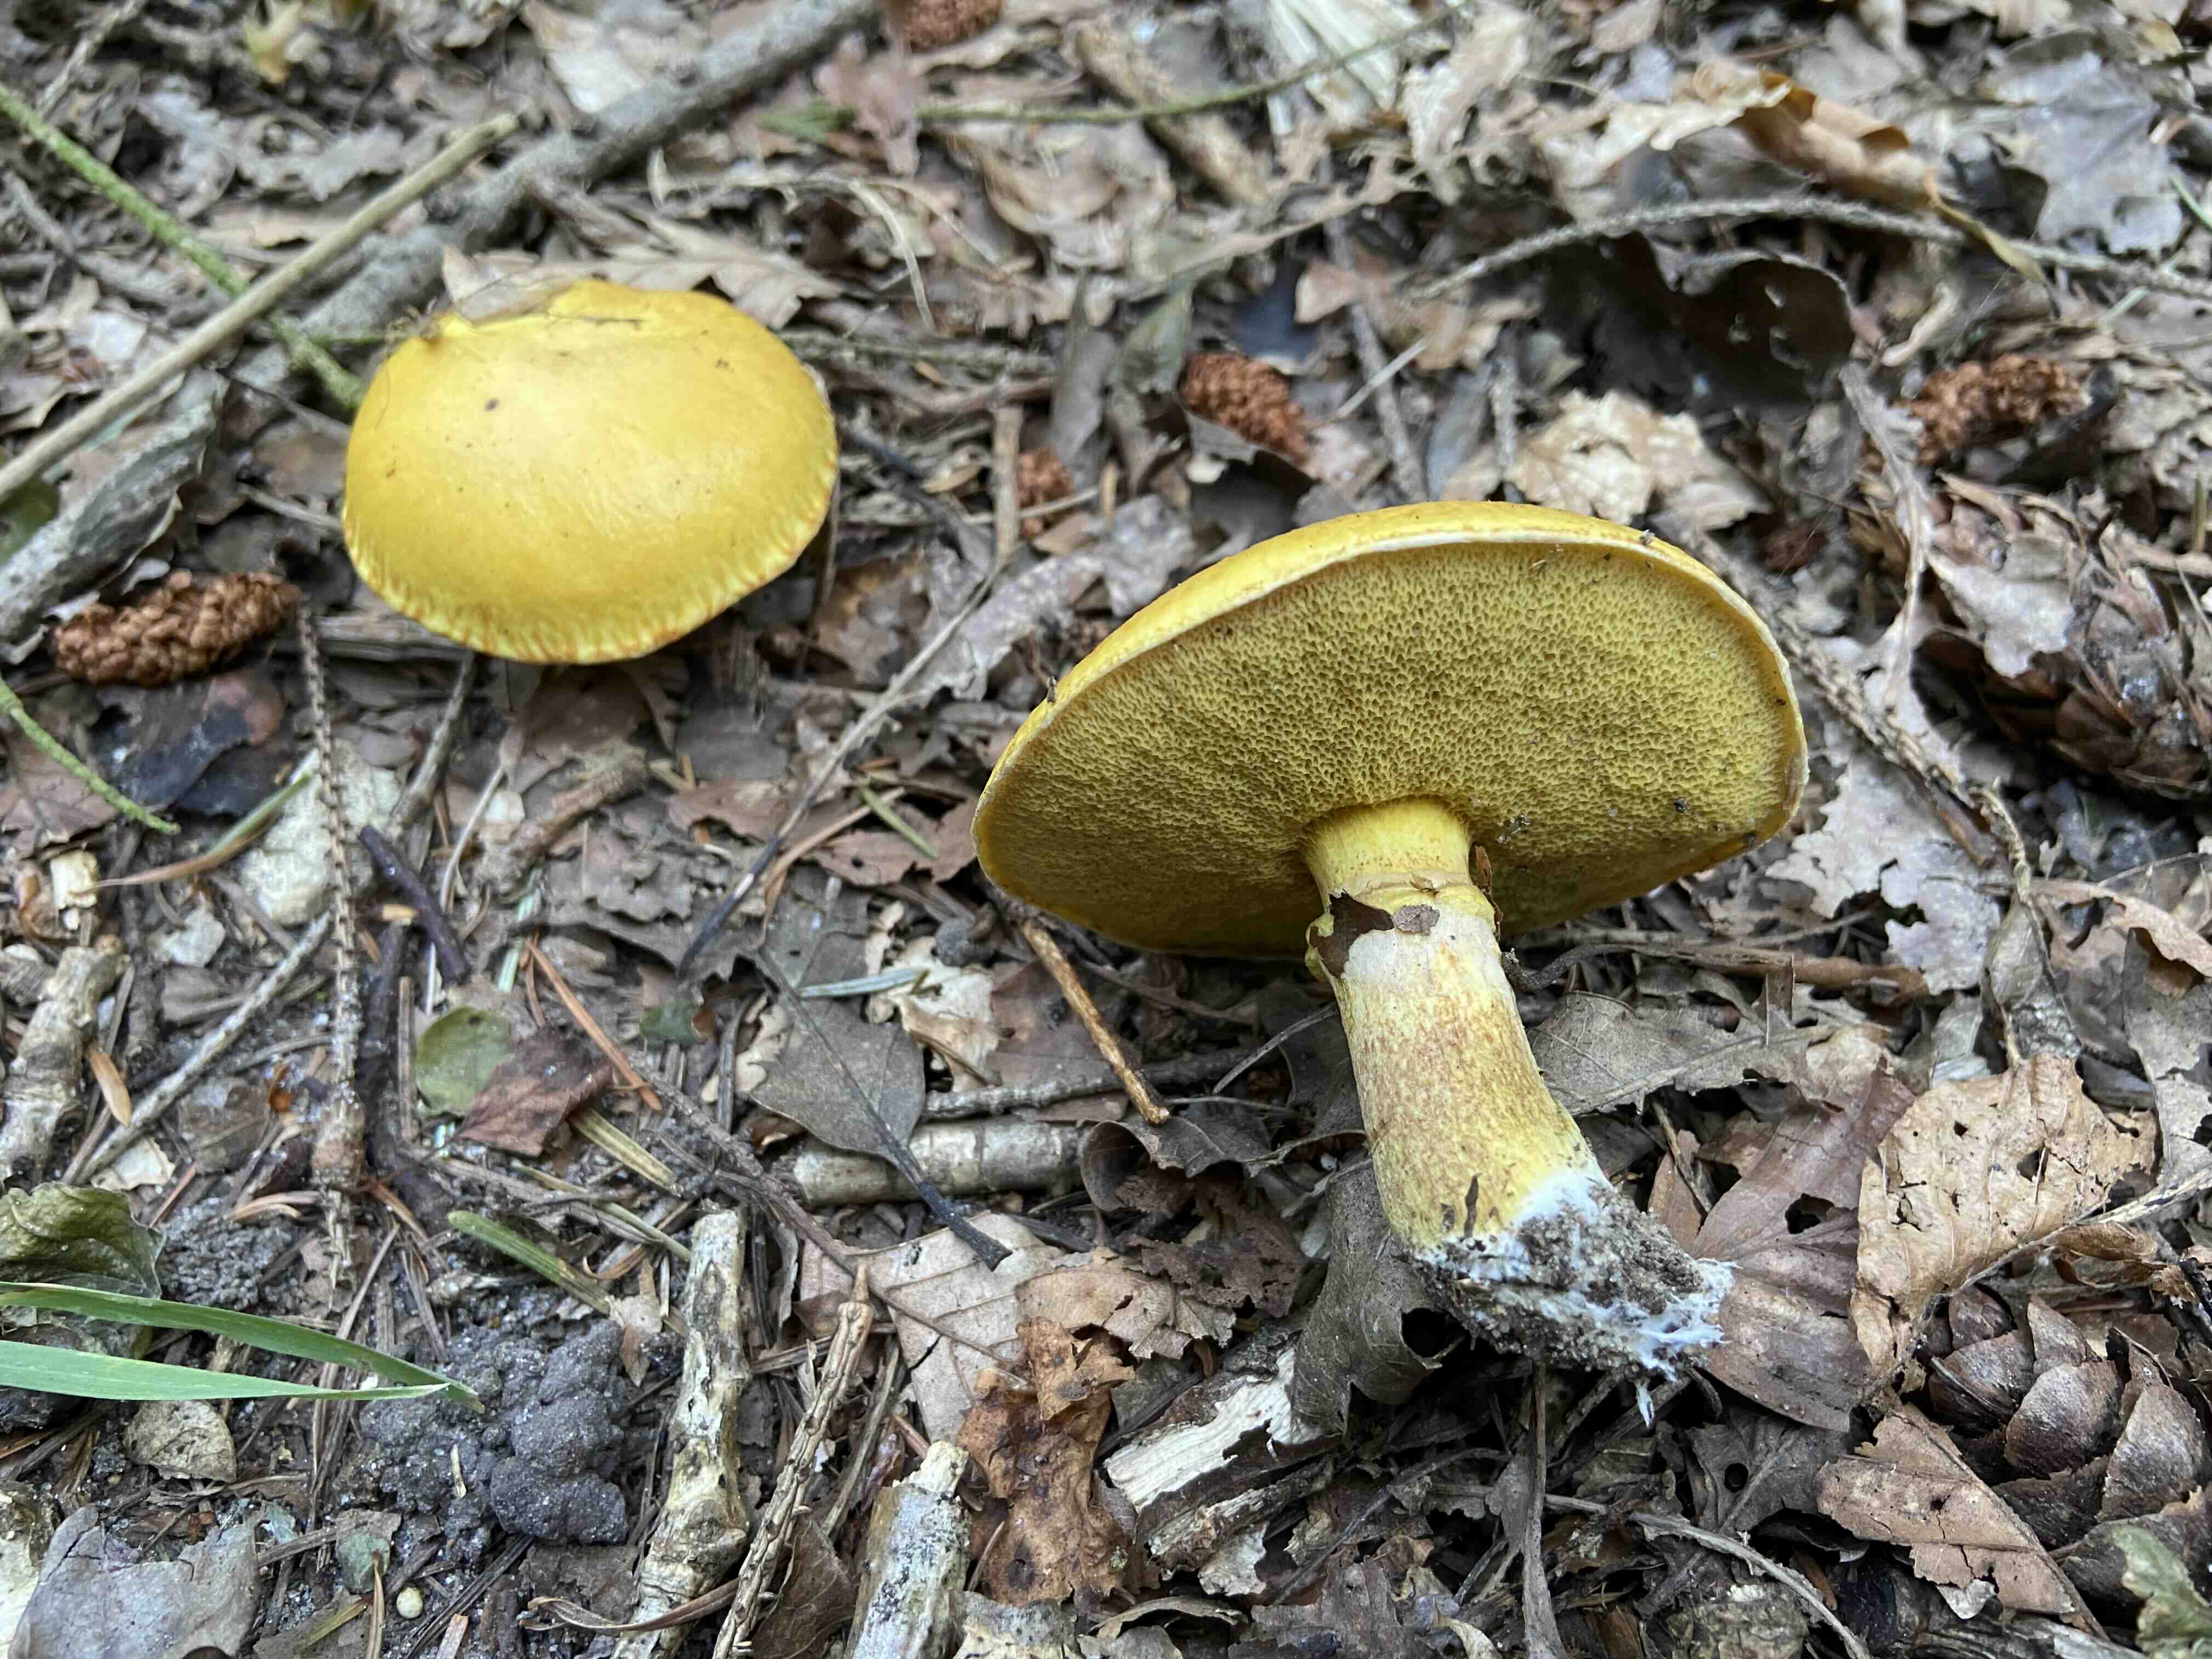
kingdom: Fungi
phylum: Basidiomycota
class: Agaricomycetes
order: Boletales
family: Suillaceae
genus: Suillus
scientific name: Suillus grevillei
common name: lærke-slimrørhat
